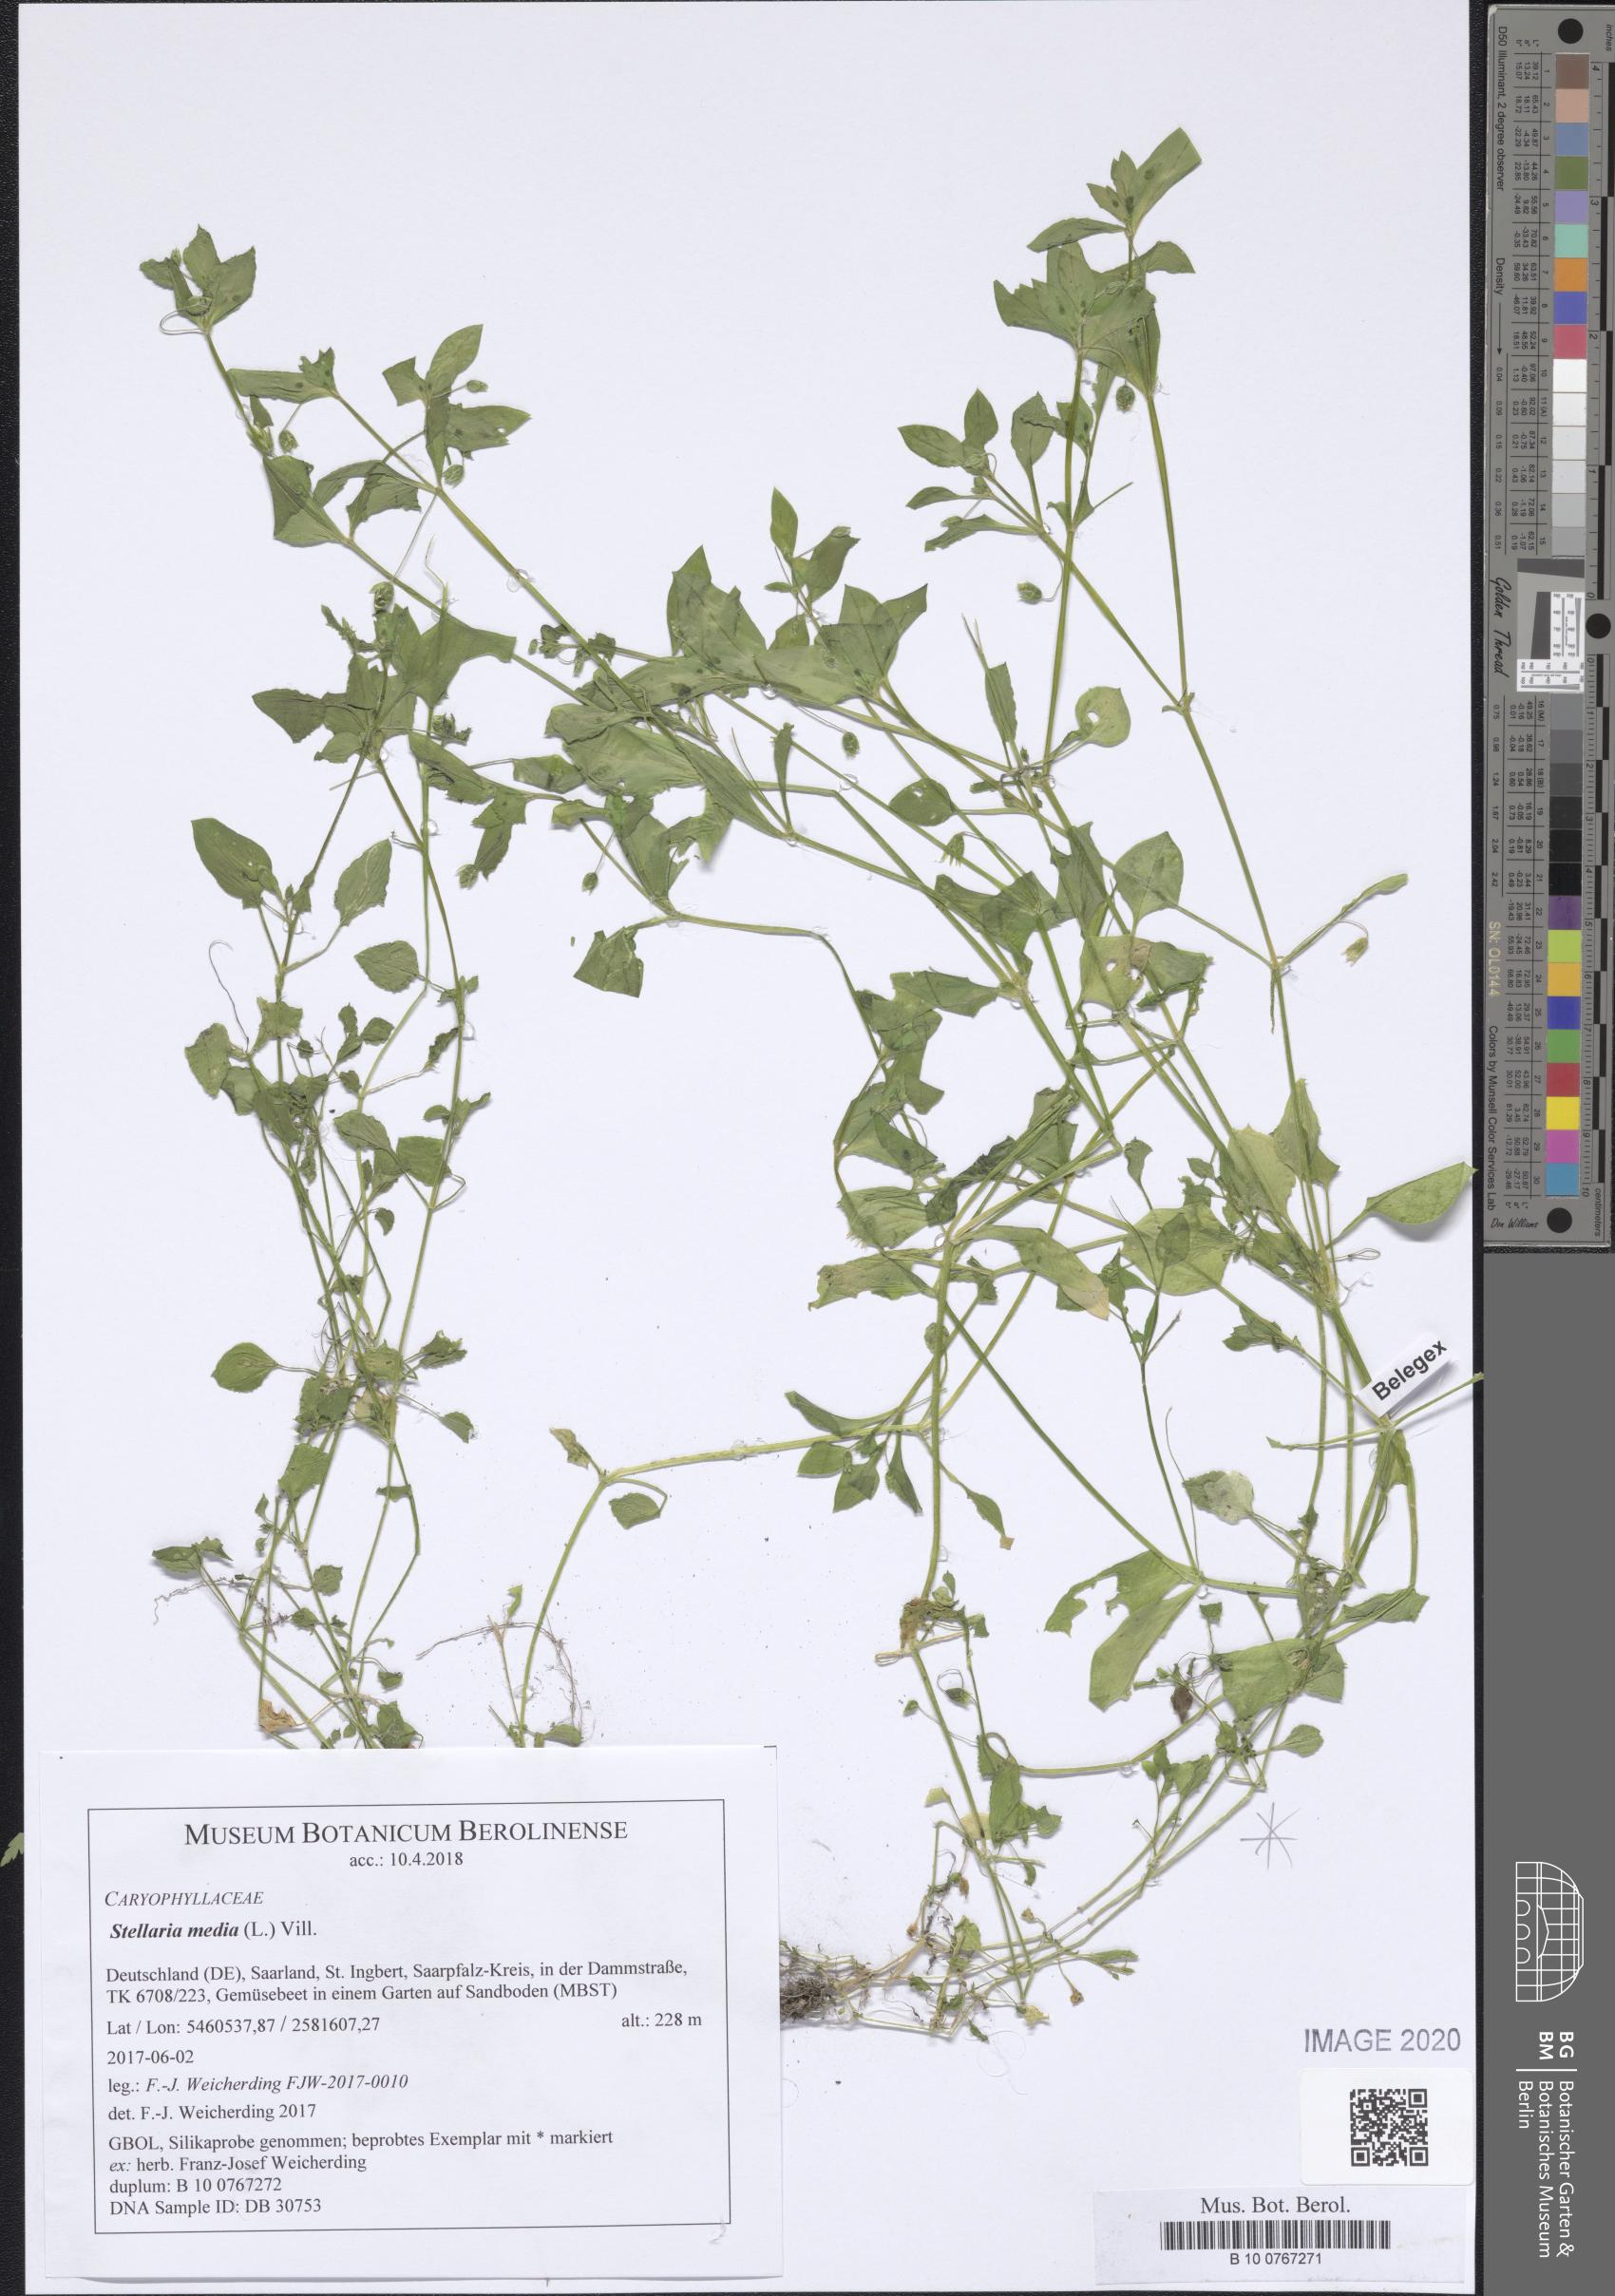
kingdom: Plantae
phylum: Tracheophyta
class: Magnoliopsida
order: Caryophyllales
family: Caryophyllaceae
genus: Stellaria
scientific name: Stellaria media
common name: Common chickweed
